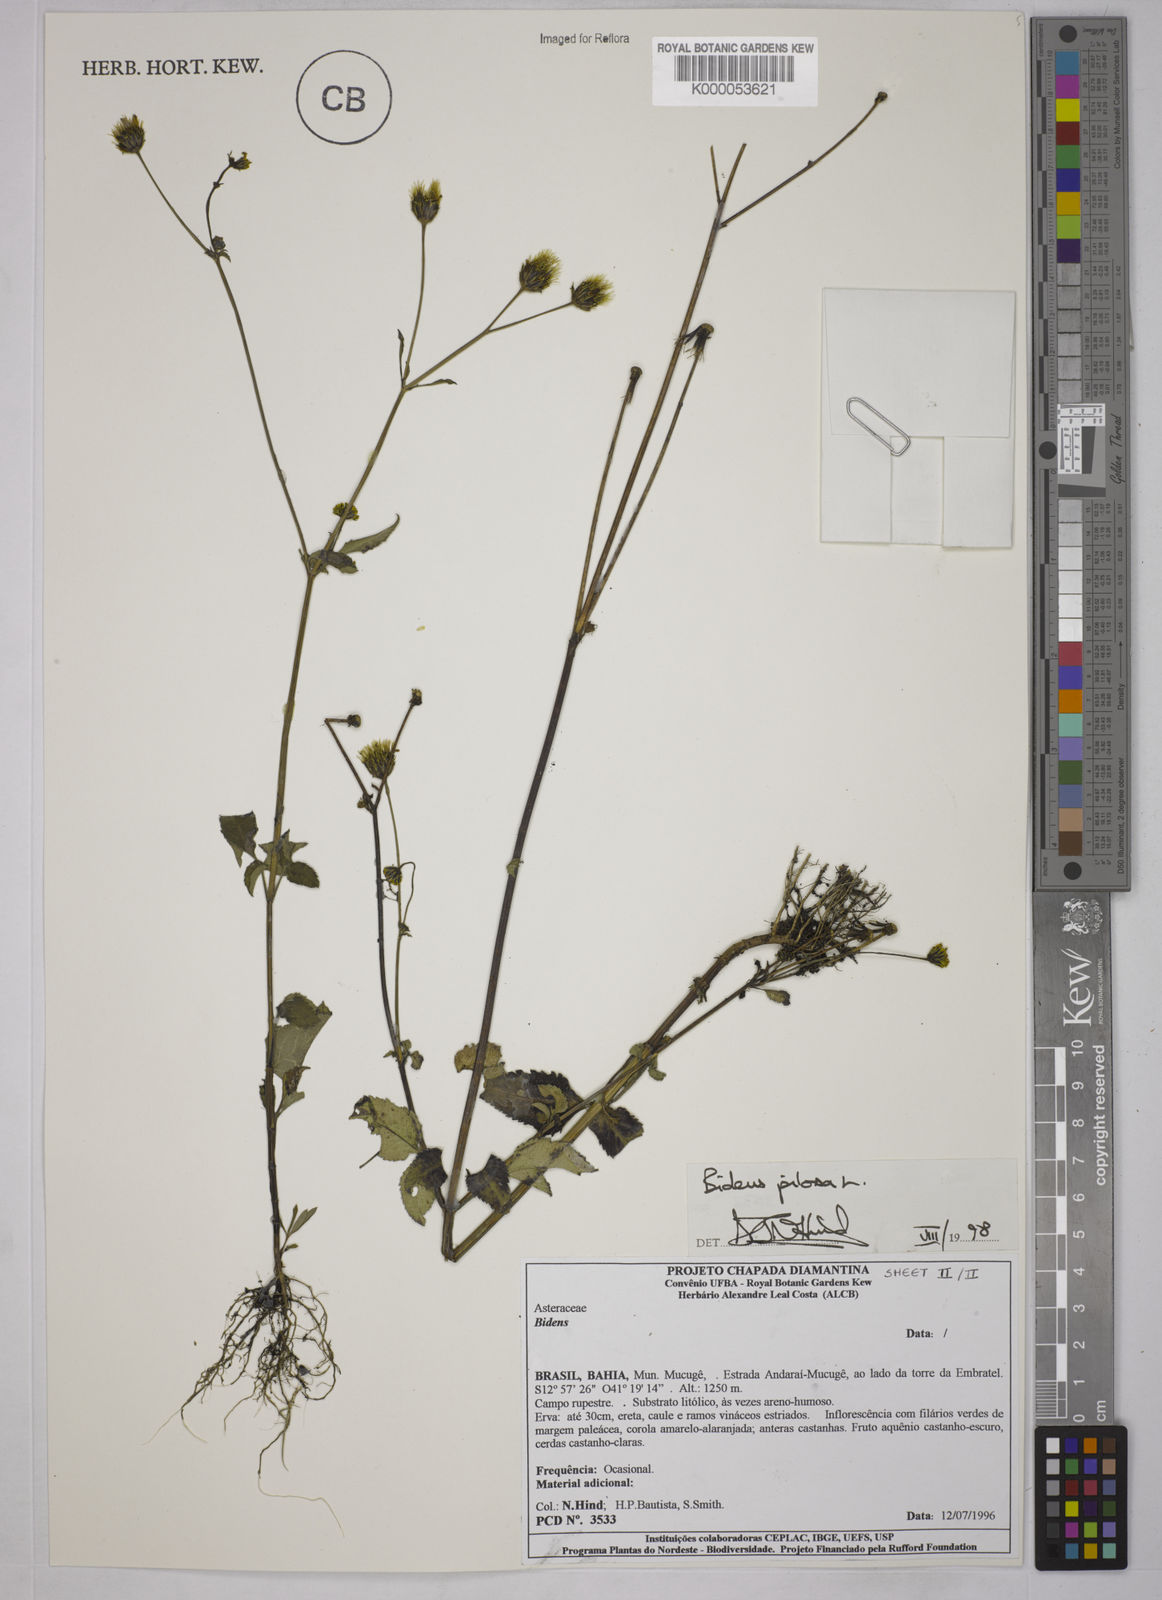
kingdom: Plantae
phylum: Tracheophyta
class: Magnoliopsida
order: Asterales
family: Asteraceae
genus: Bidens
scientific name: Bidens pilosa
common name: Black-jack
